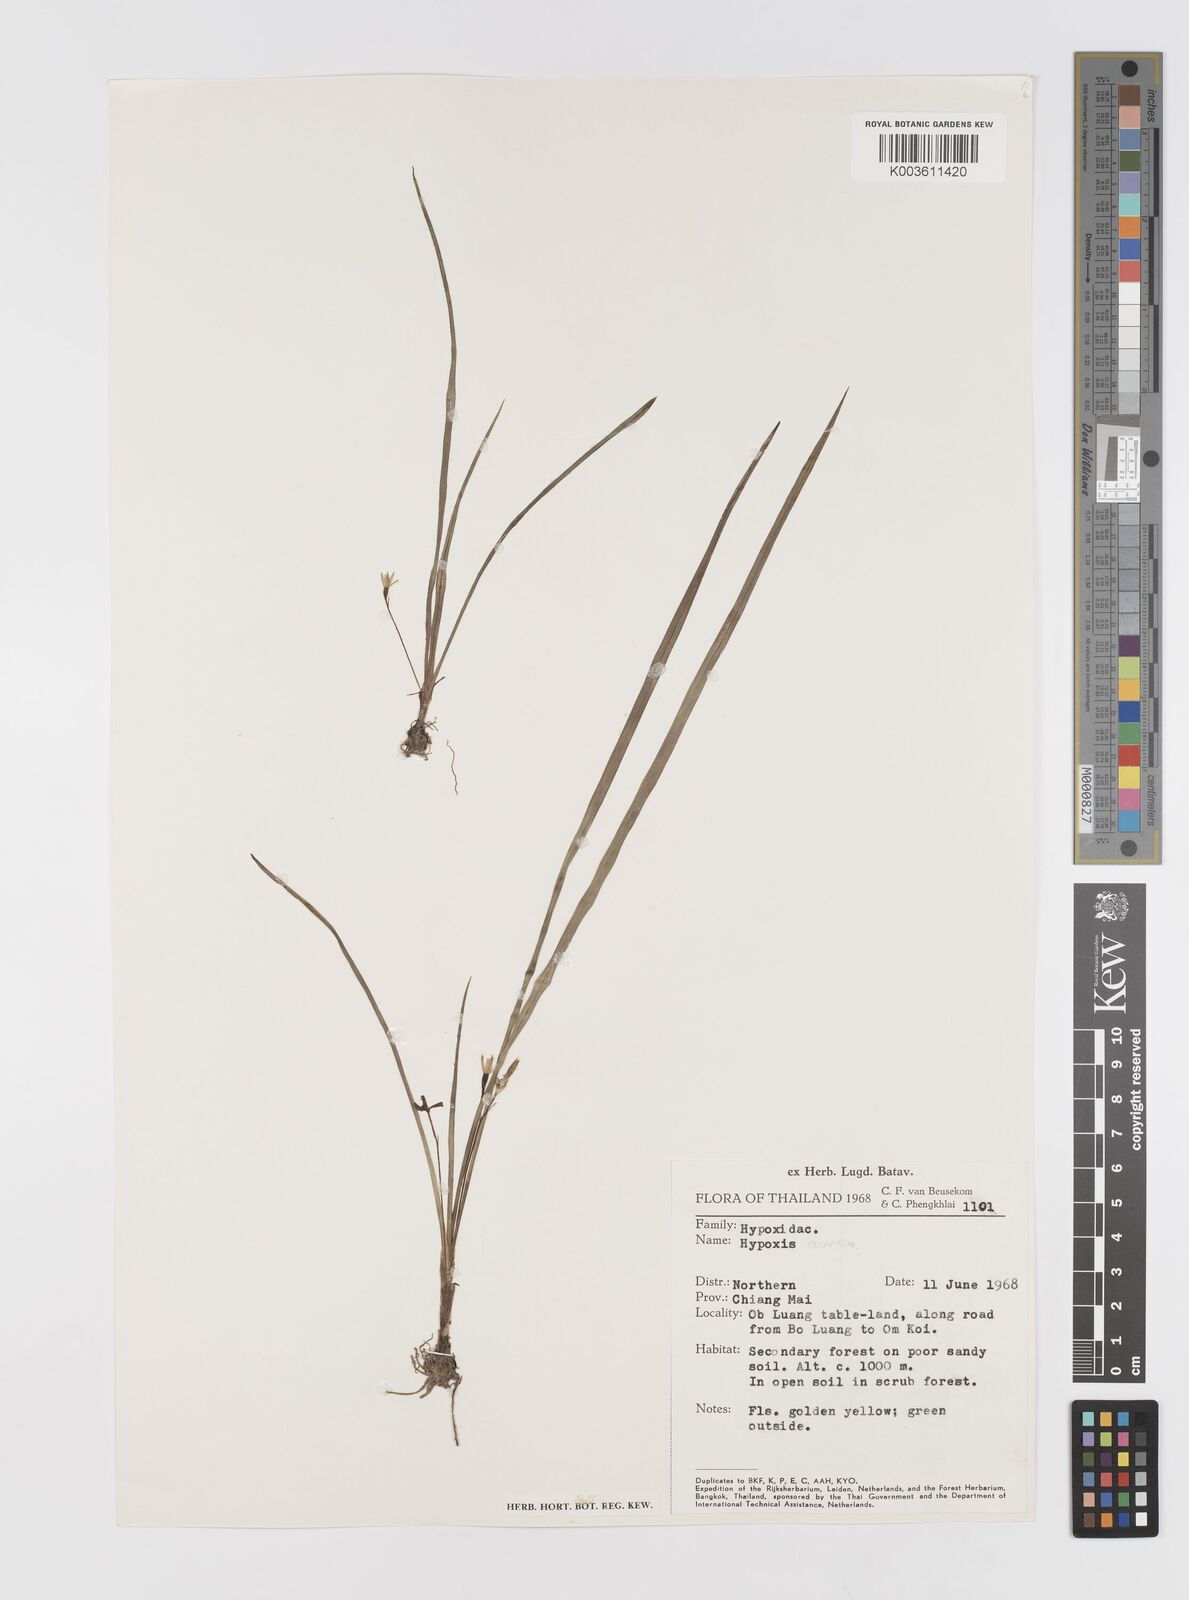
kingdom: Plantae
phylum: Tracheophyta
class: Liliopsida
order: Asparagales
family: Hypoxidaceae
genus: Hypoxis
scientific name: Hypoxis aurea
